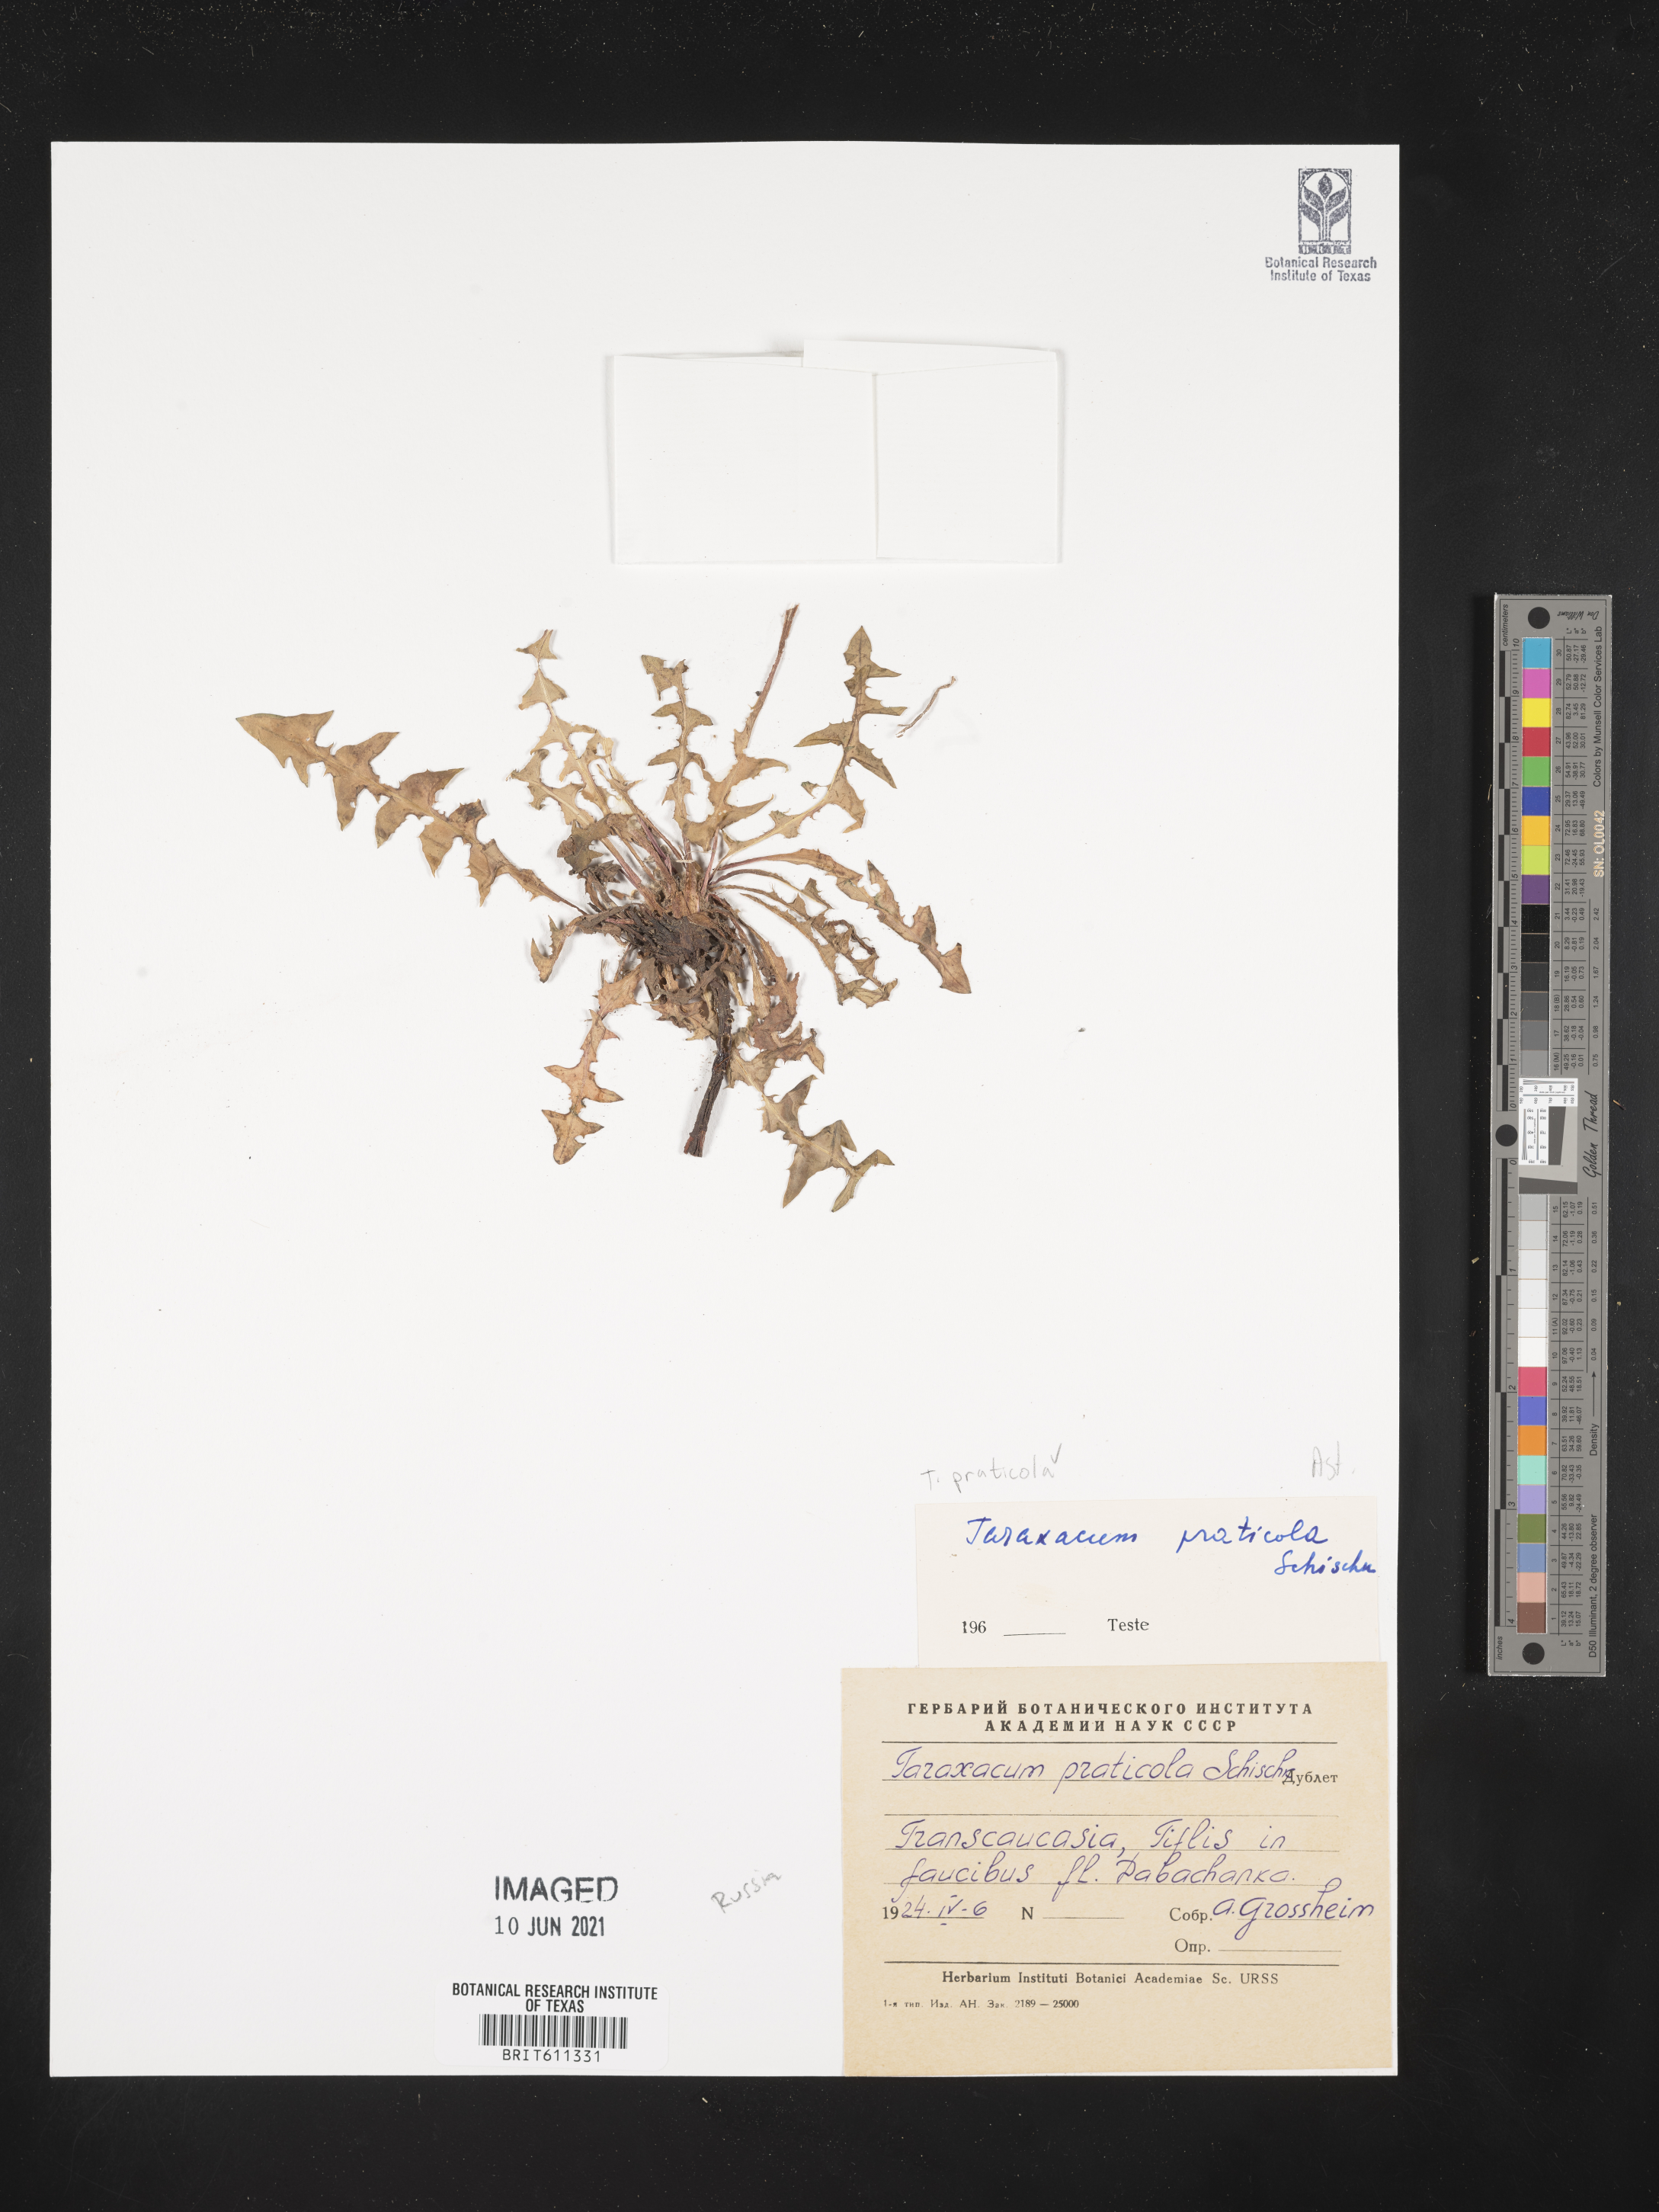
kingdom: Plantae
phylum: Tracheophyta
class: Magnoliopsida
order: Asterales
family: Asteraceae
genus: Taraxacum
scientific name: Taraxacum praticola
